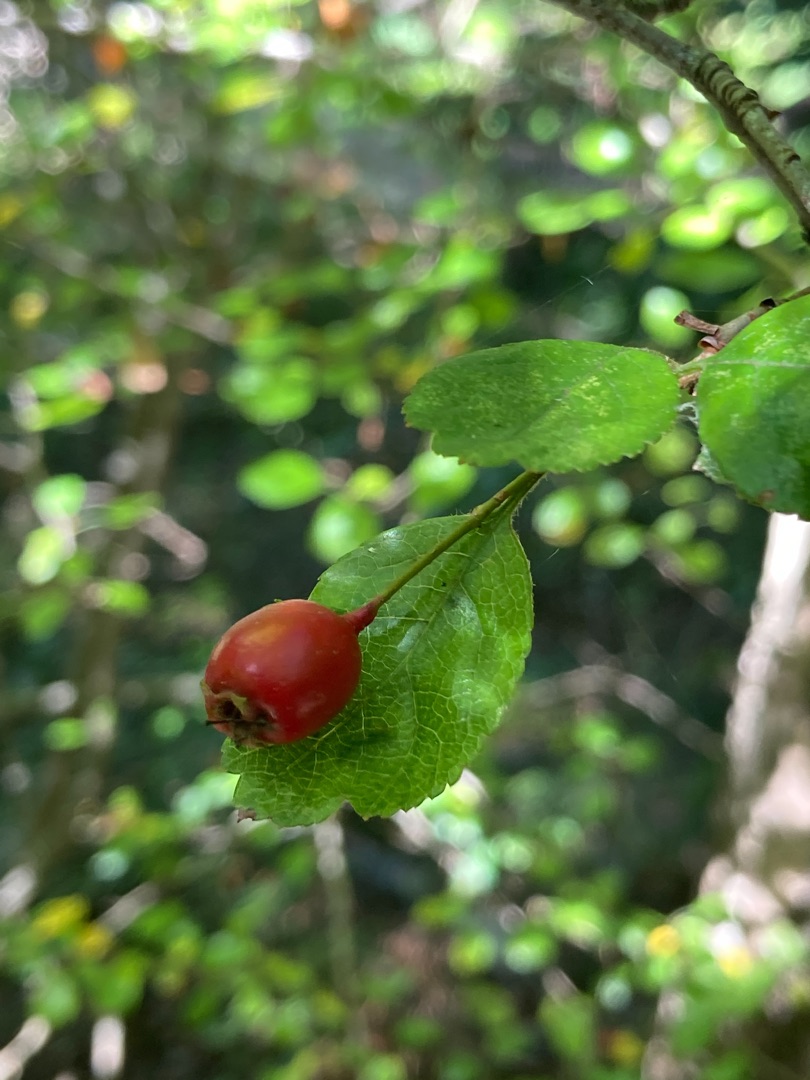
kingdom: Plantae
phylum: Tracheophyta
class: Magnoliopsida
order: Rosales
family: Rosaceae
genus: Crataegus
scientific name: Crataegus laevigata
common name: Almindelig hvidtjørn
